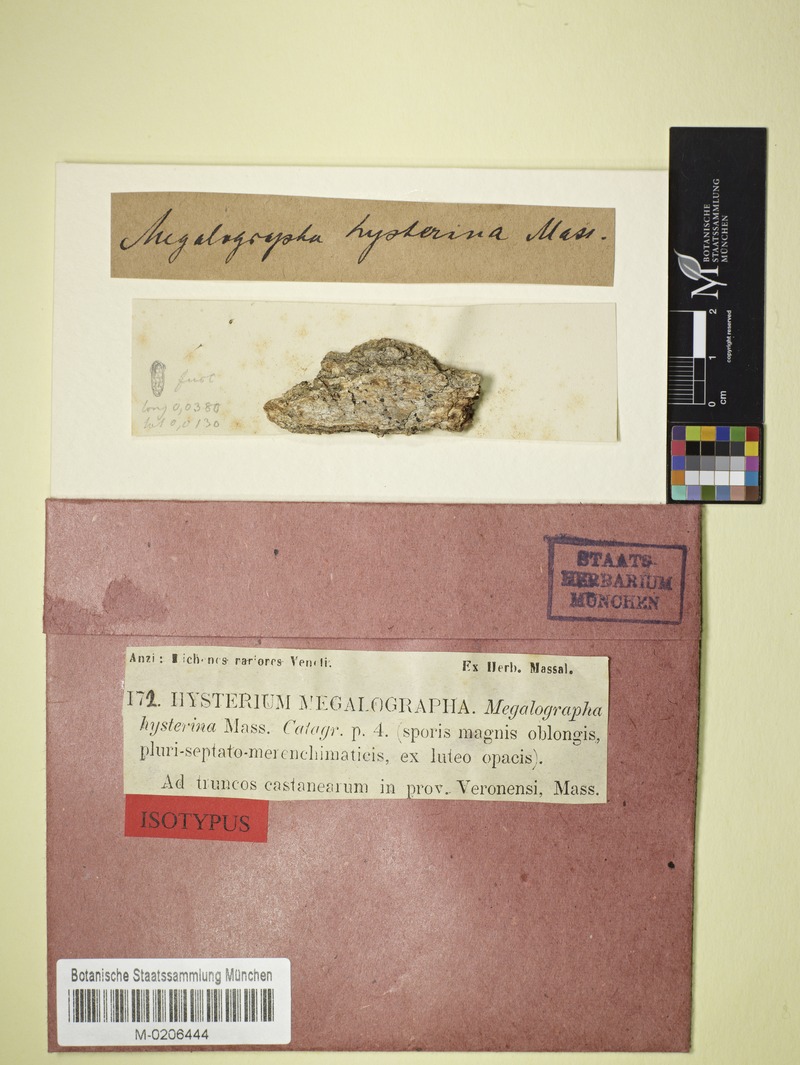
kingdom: Fungi
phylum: Ascomycota
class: Dothideomycetes
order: Hysteriales
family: Hysteriaceae
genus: Hysterographium
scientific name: Hysterographium
